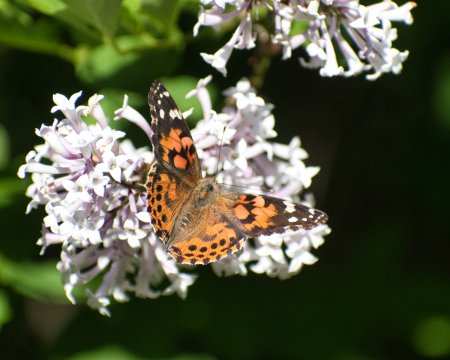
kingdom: Animalia
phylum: Arthropoda
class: Insecta
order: Lepidoptera
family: Nymphalidae
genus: Vanessa
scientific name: Vanessa cardui
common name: Painted Lady
